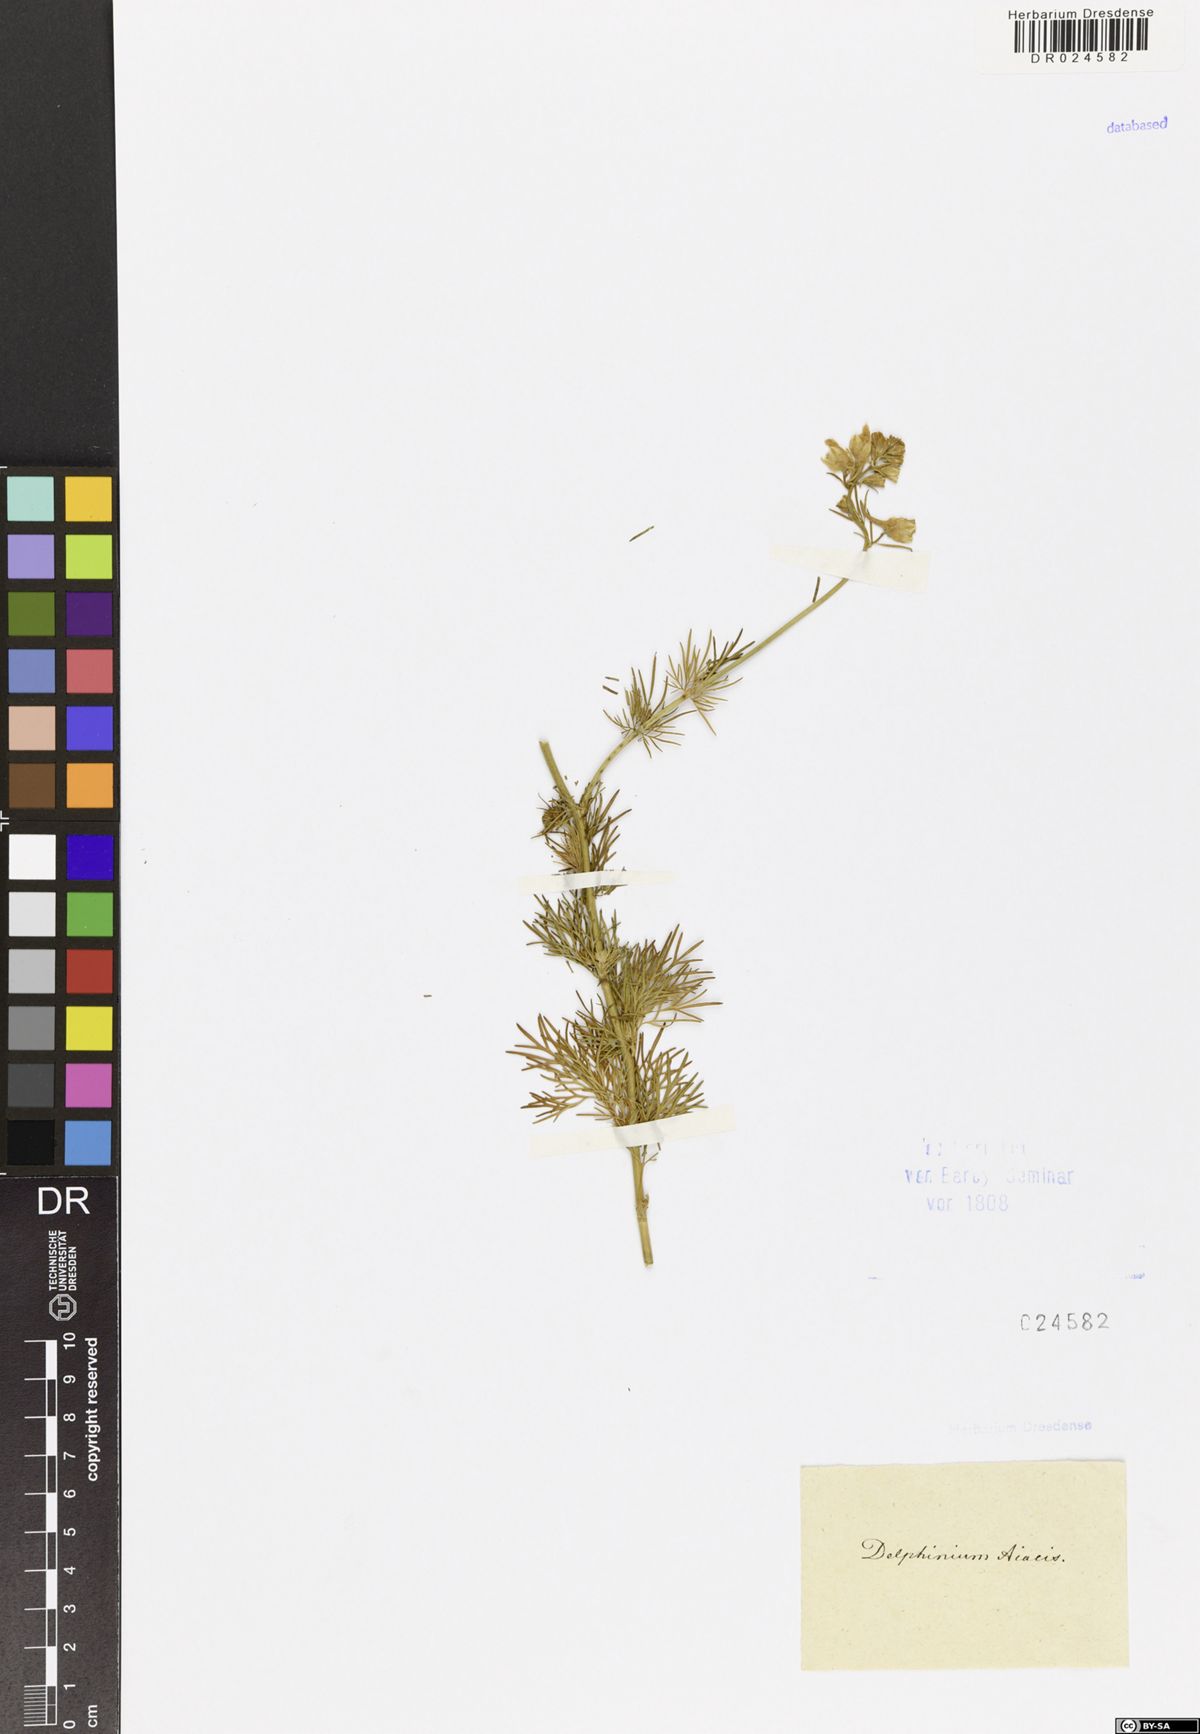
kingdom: Plantae
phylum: Tracheophyta
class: Magnoliopsida
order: Ranunculales
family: Ranunculaceae
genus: Delphinium
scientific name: Delphinium ajacis
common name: Doubtful knight's-spur
